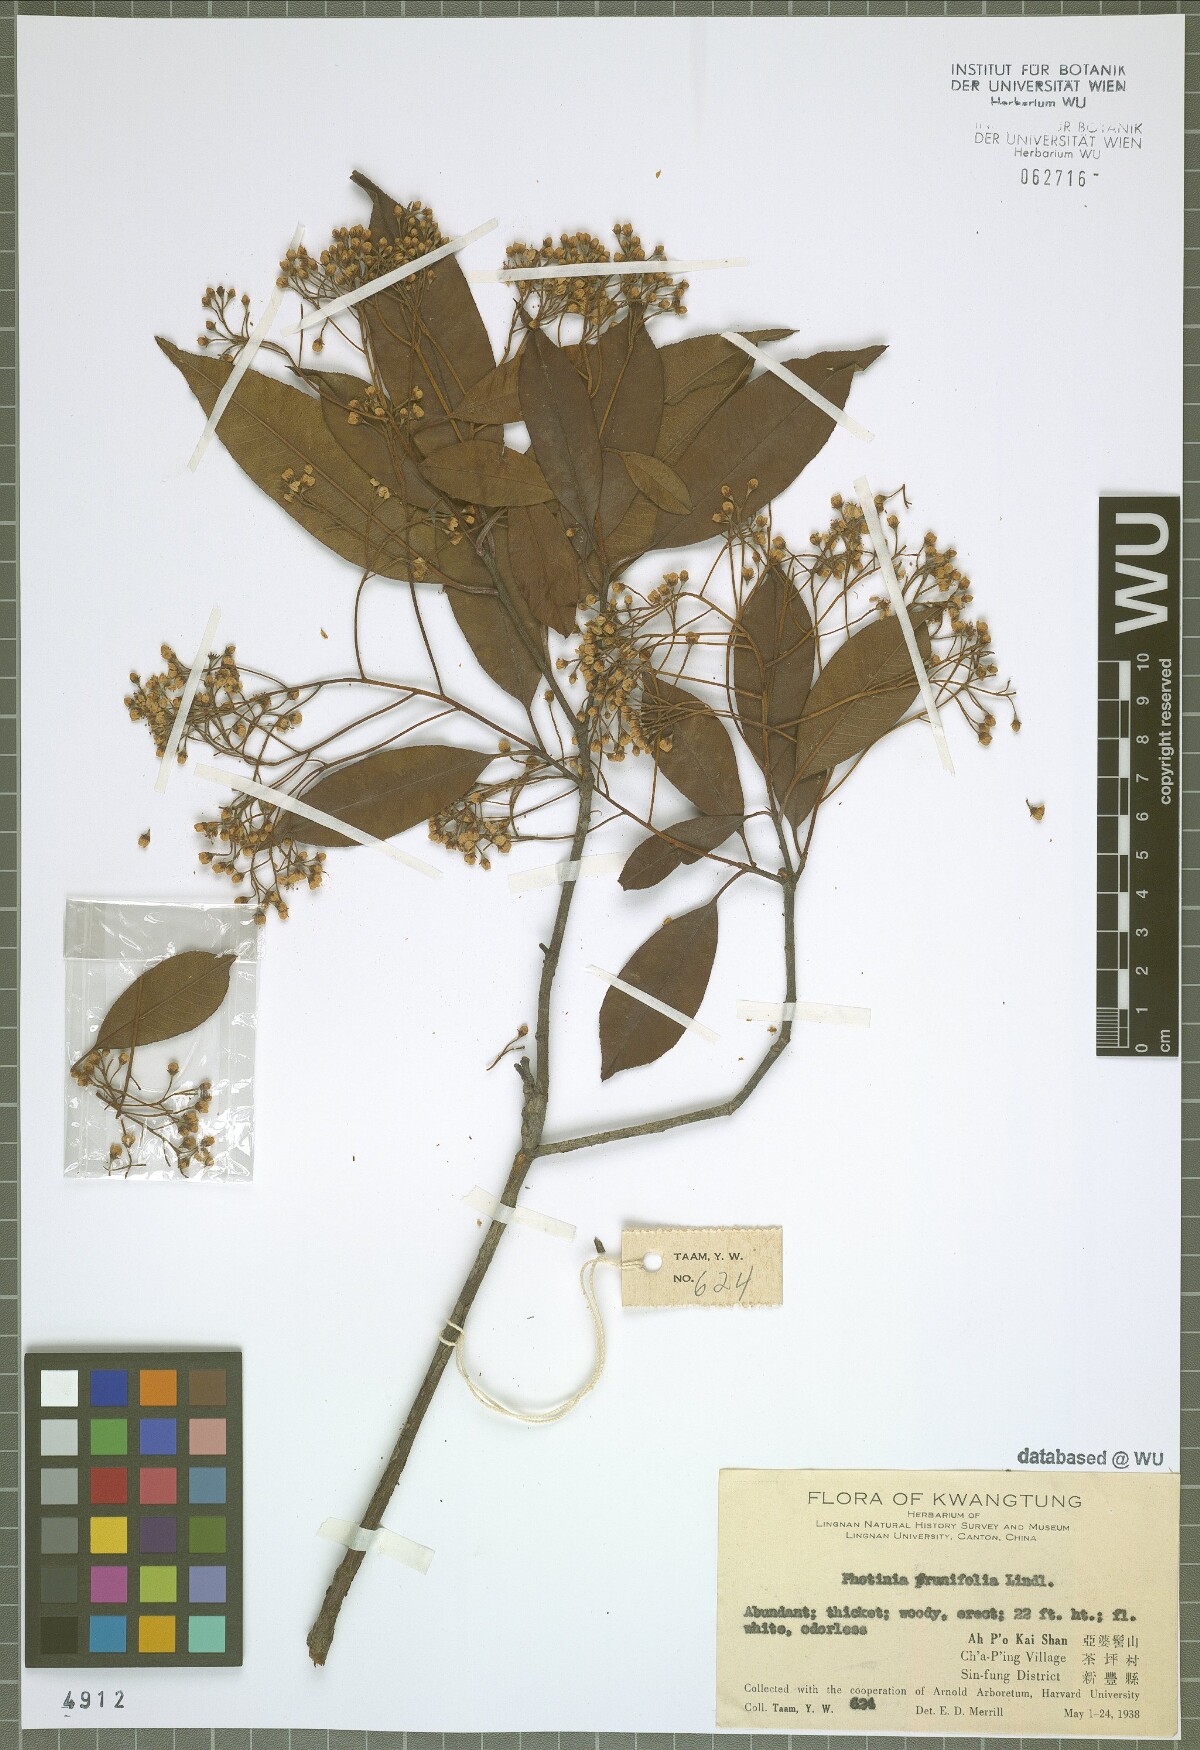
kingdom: Plantae
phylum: Tracheophyta
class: Magnoliopsida
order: Rosales
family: Rosaceae
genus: Photinia
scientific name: Photinia prunifolia
